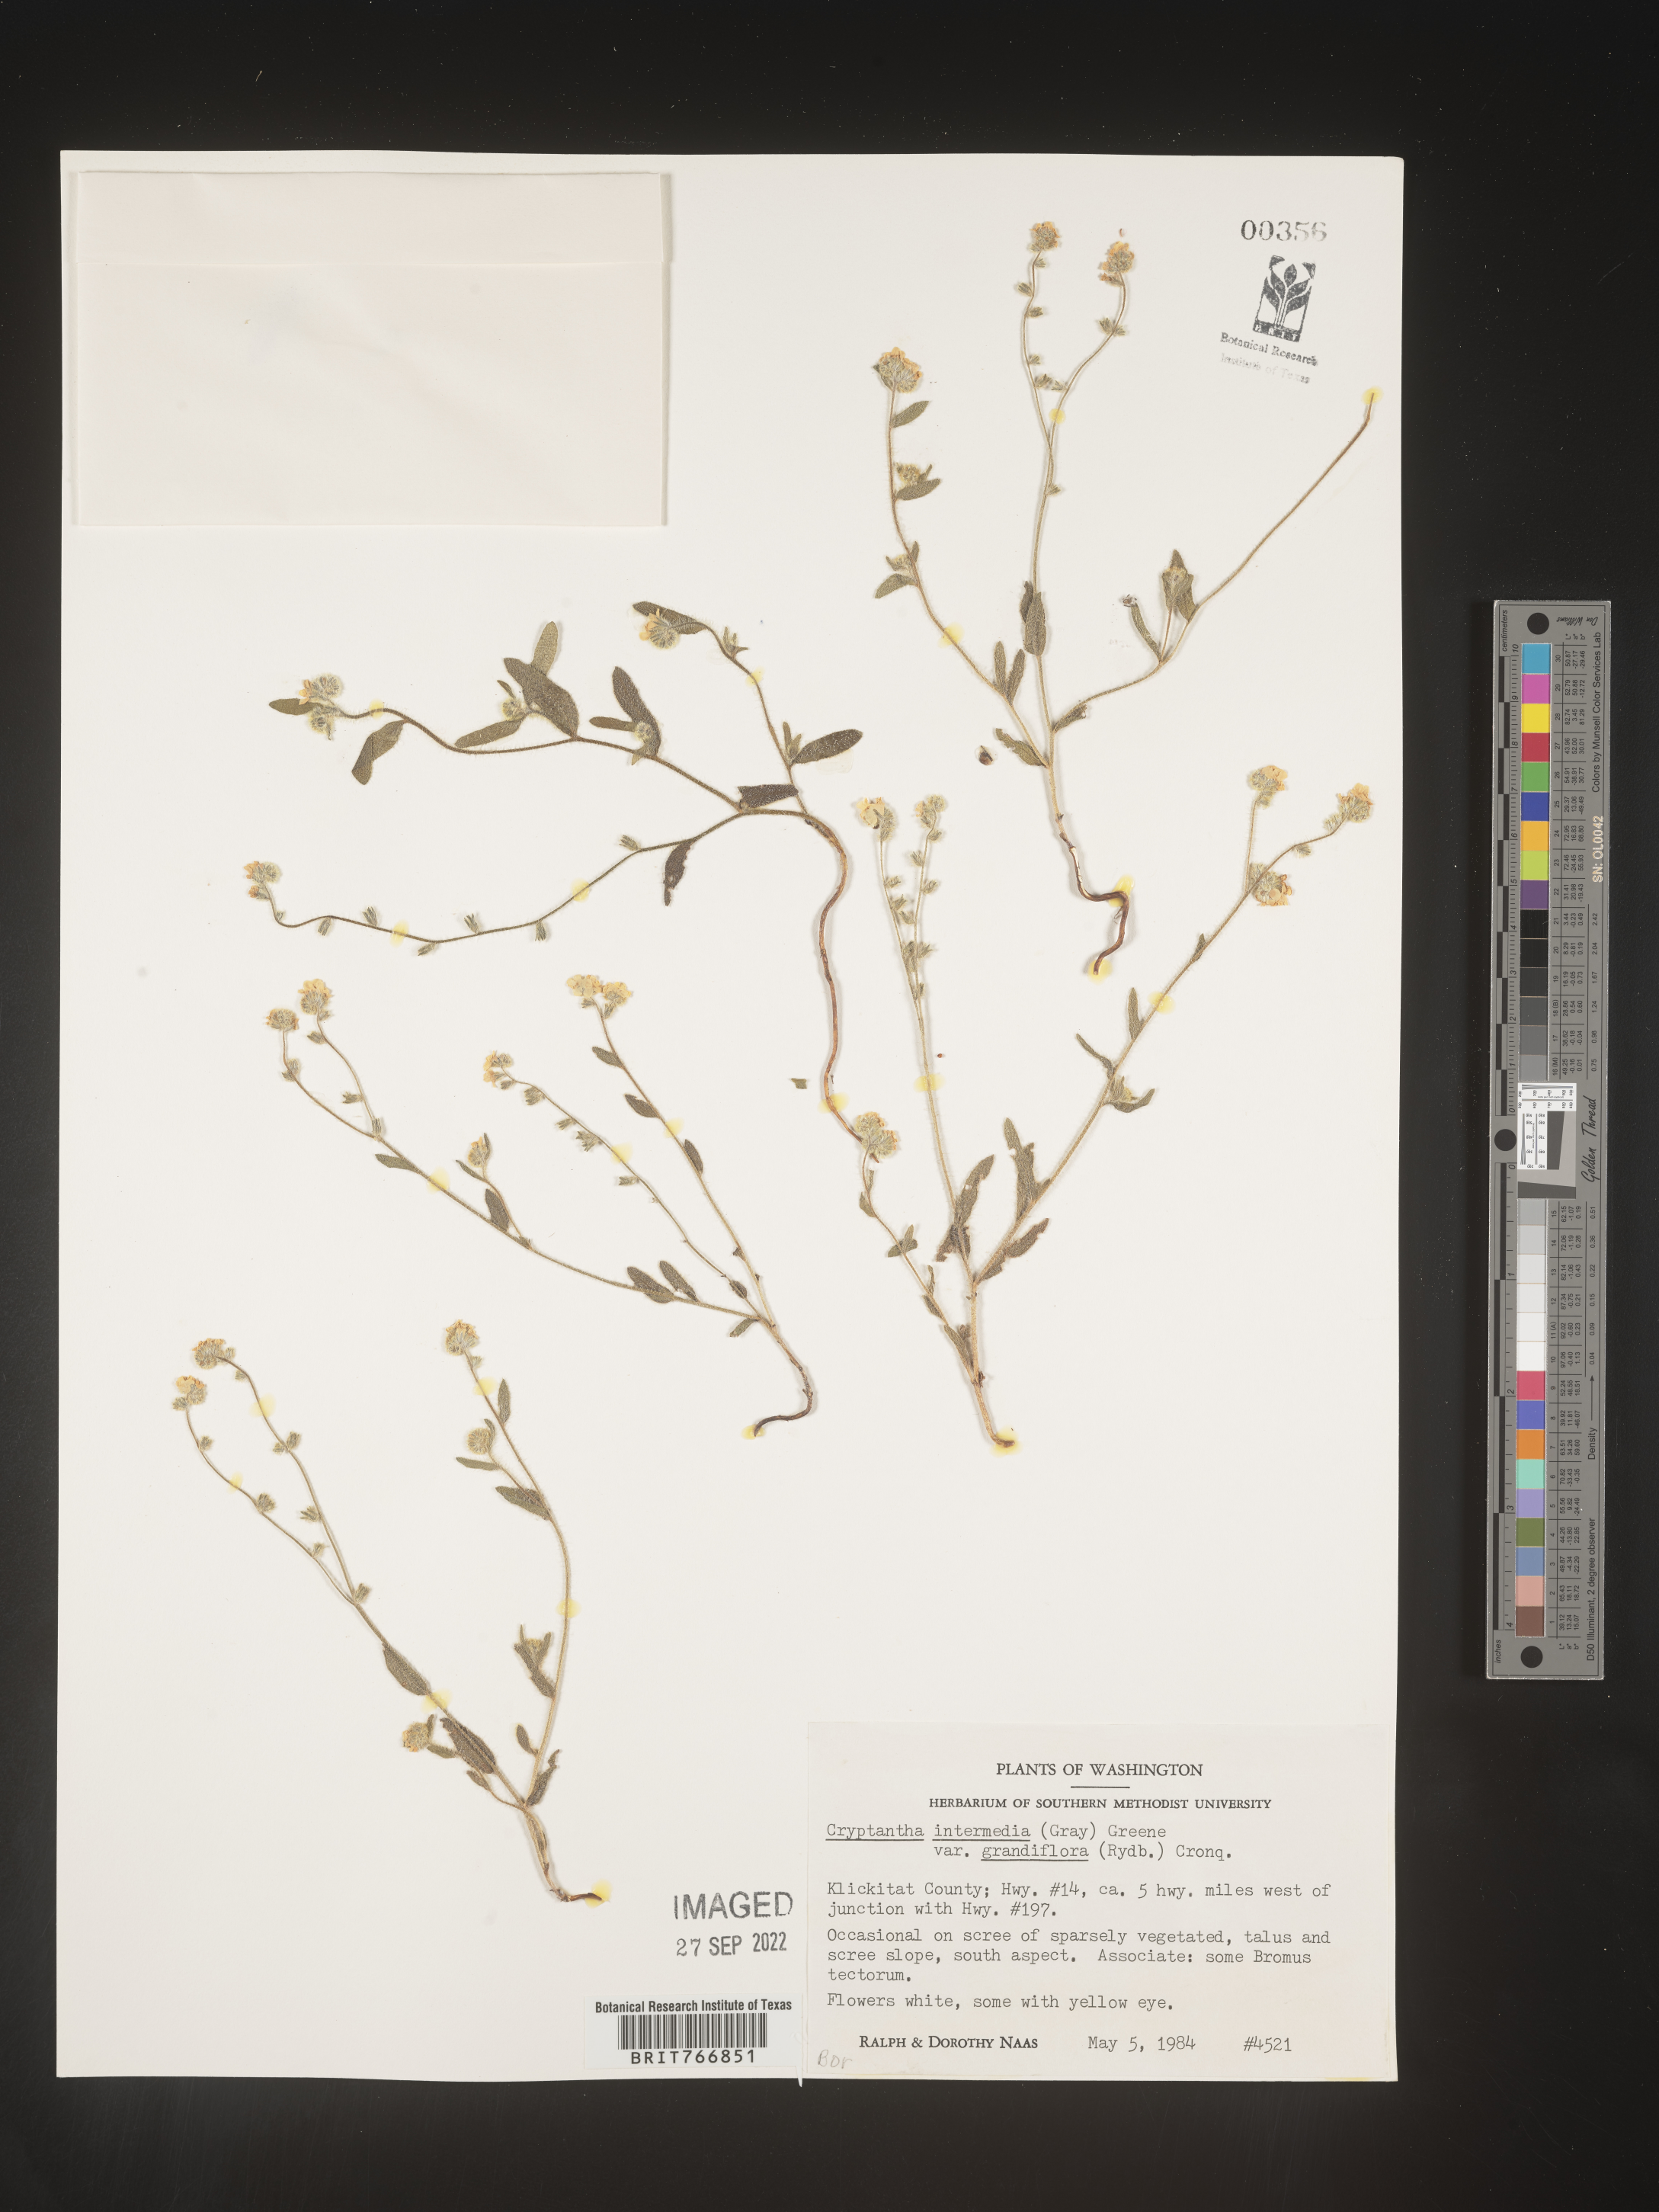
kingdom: Plantae
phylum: Tracheophyta
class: Magnoliopsida
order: Boraginales
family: Boraginaceae
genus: Cryptantha
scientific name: Cryptantha
